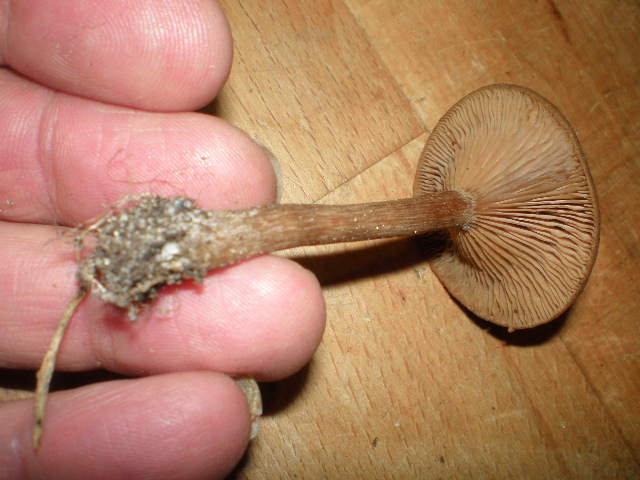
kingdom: Fungi
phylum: Basidiomycota
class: Agaricomycetes
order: Agaricales
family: Pseudoclitocybaceae
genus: Pseudoclitocybe
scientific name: Pseudoclitocybe cyathiformis
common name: almindelig bægertragthat
